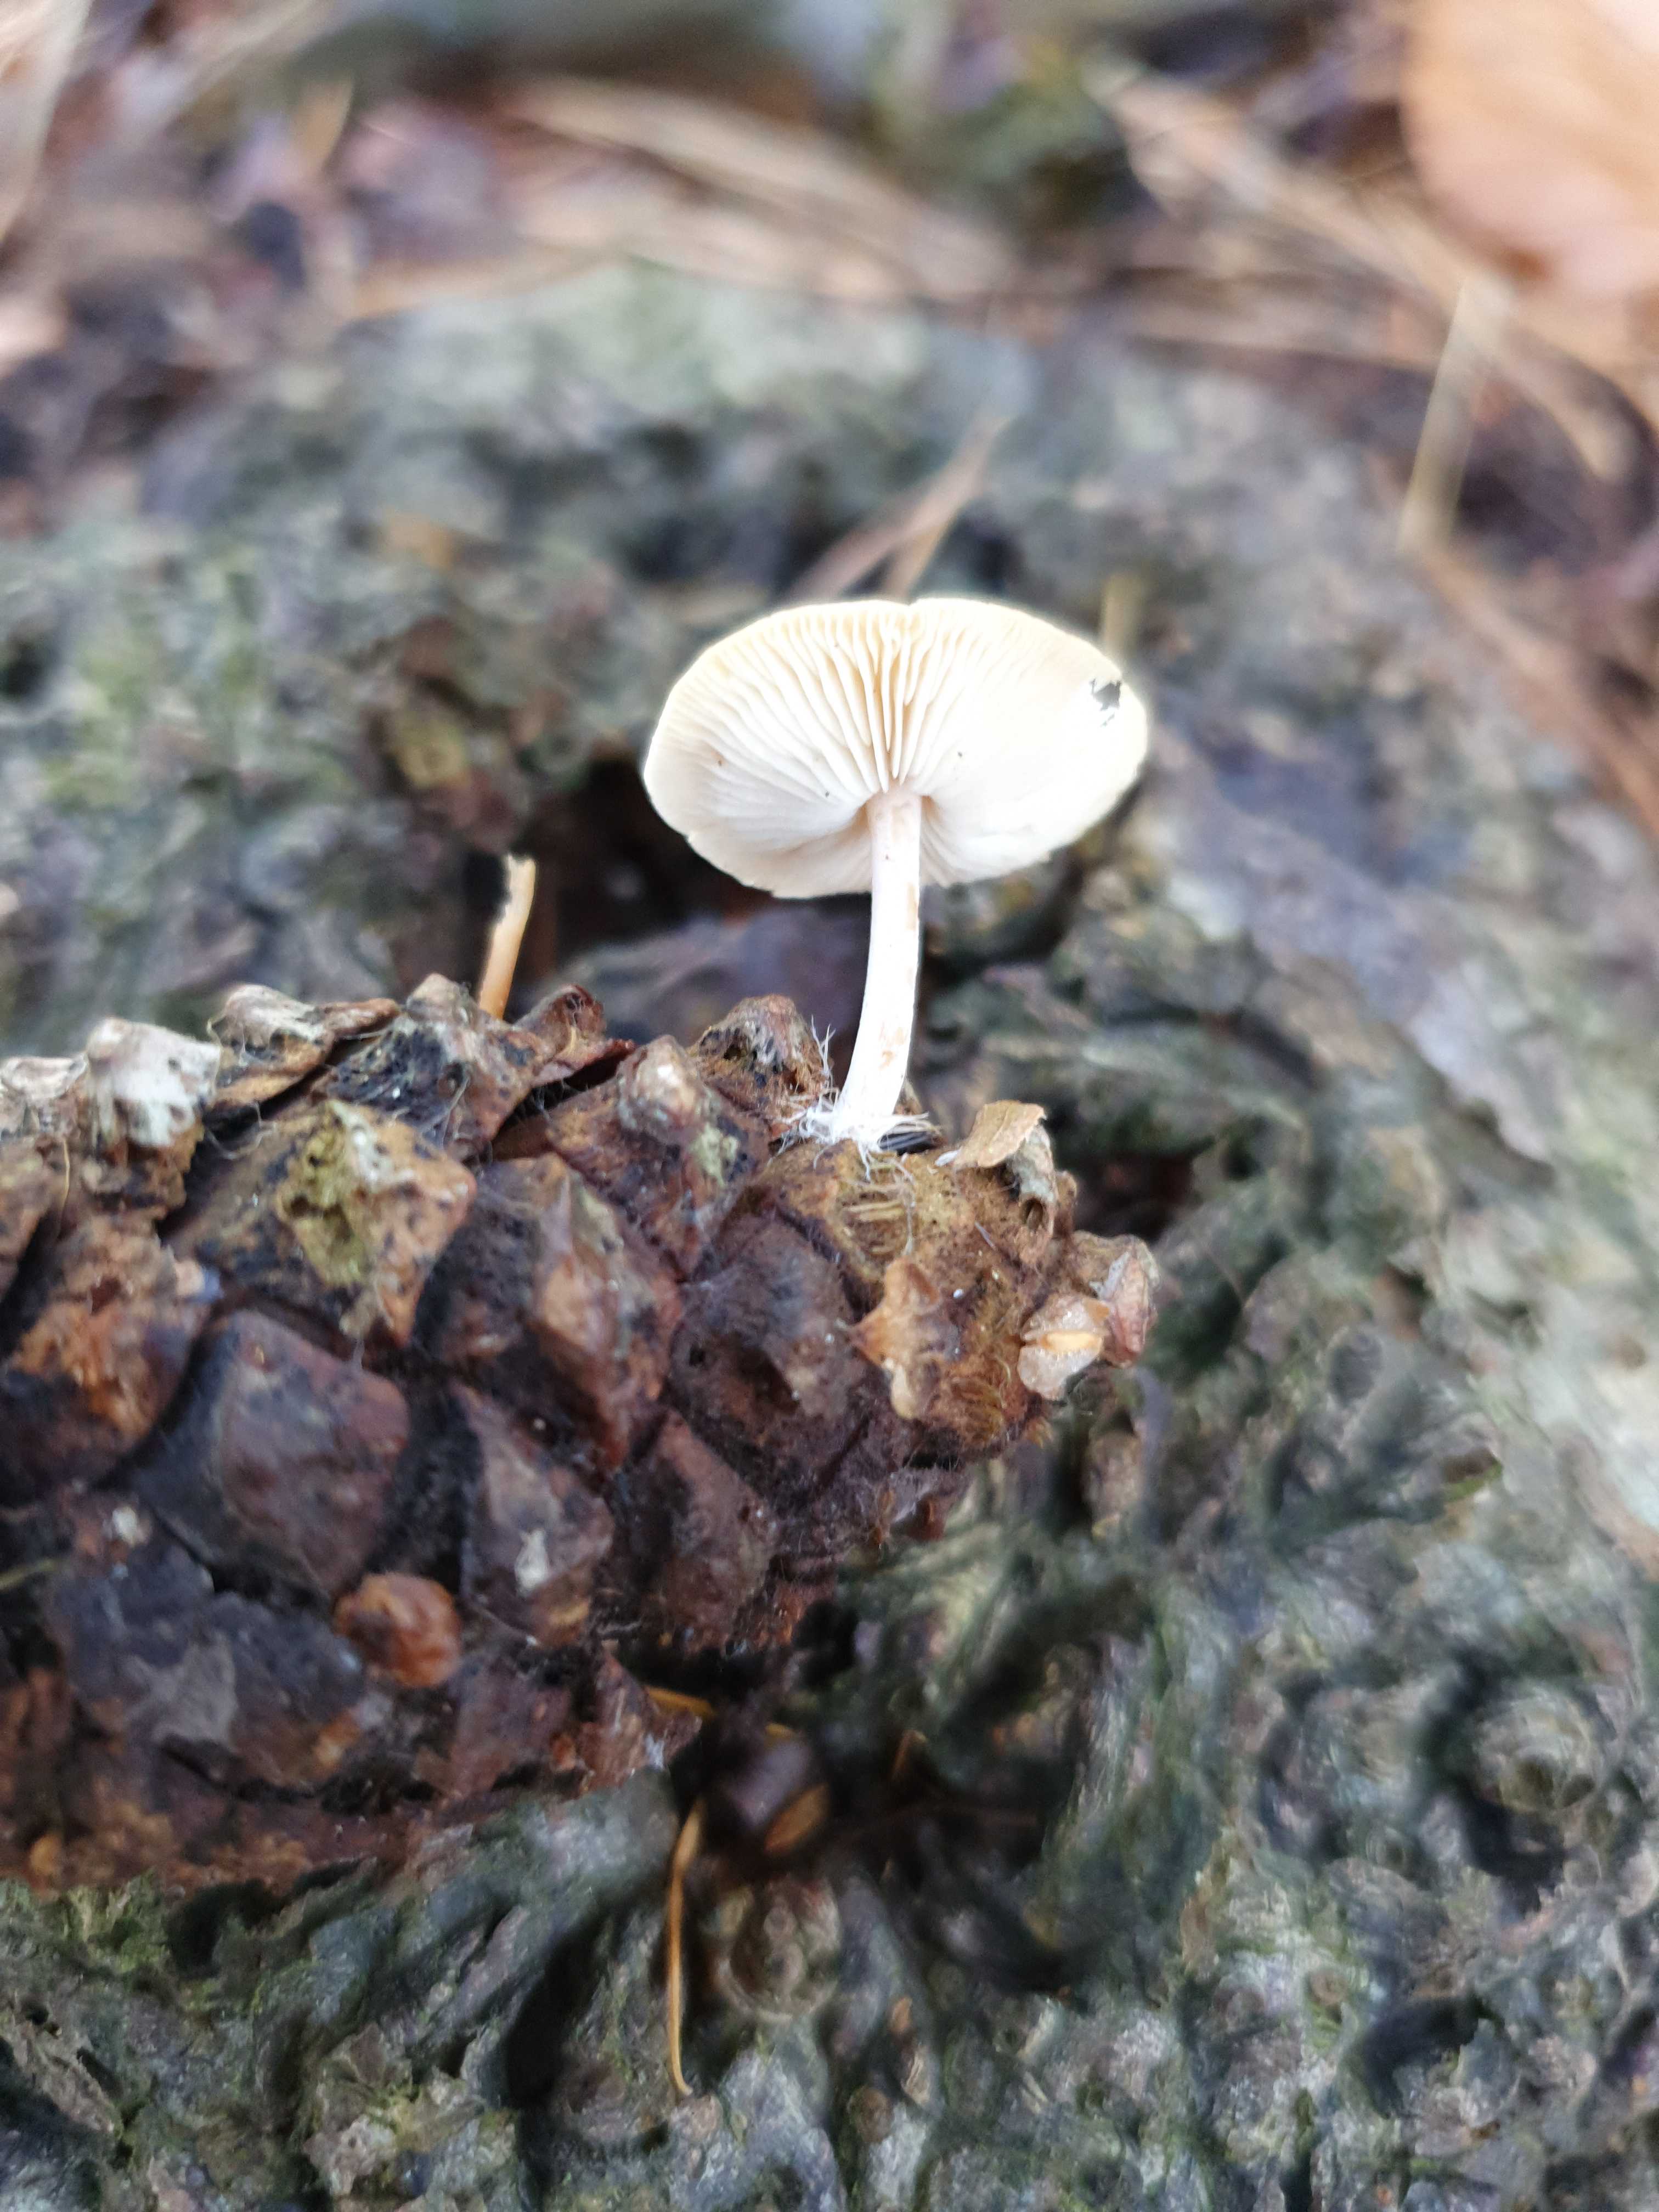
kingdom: Fungi
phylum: Basidiomycota
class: Agaricomycetes
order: Agaricales
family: Marasmiaceae
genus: Baeospora
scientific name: Baeospora myosura
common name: koglebruskhat
